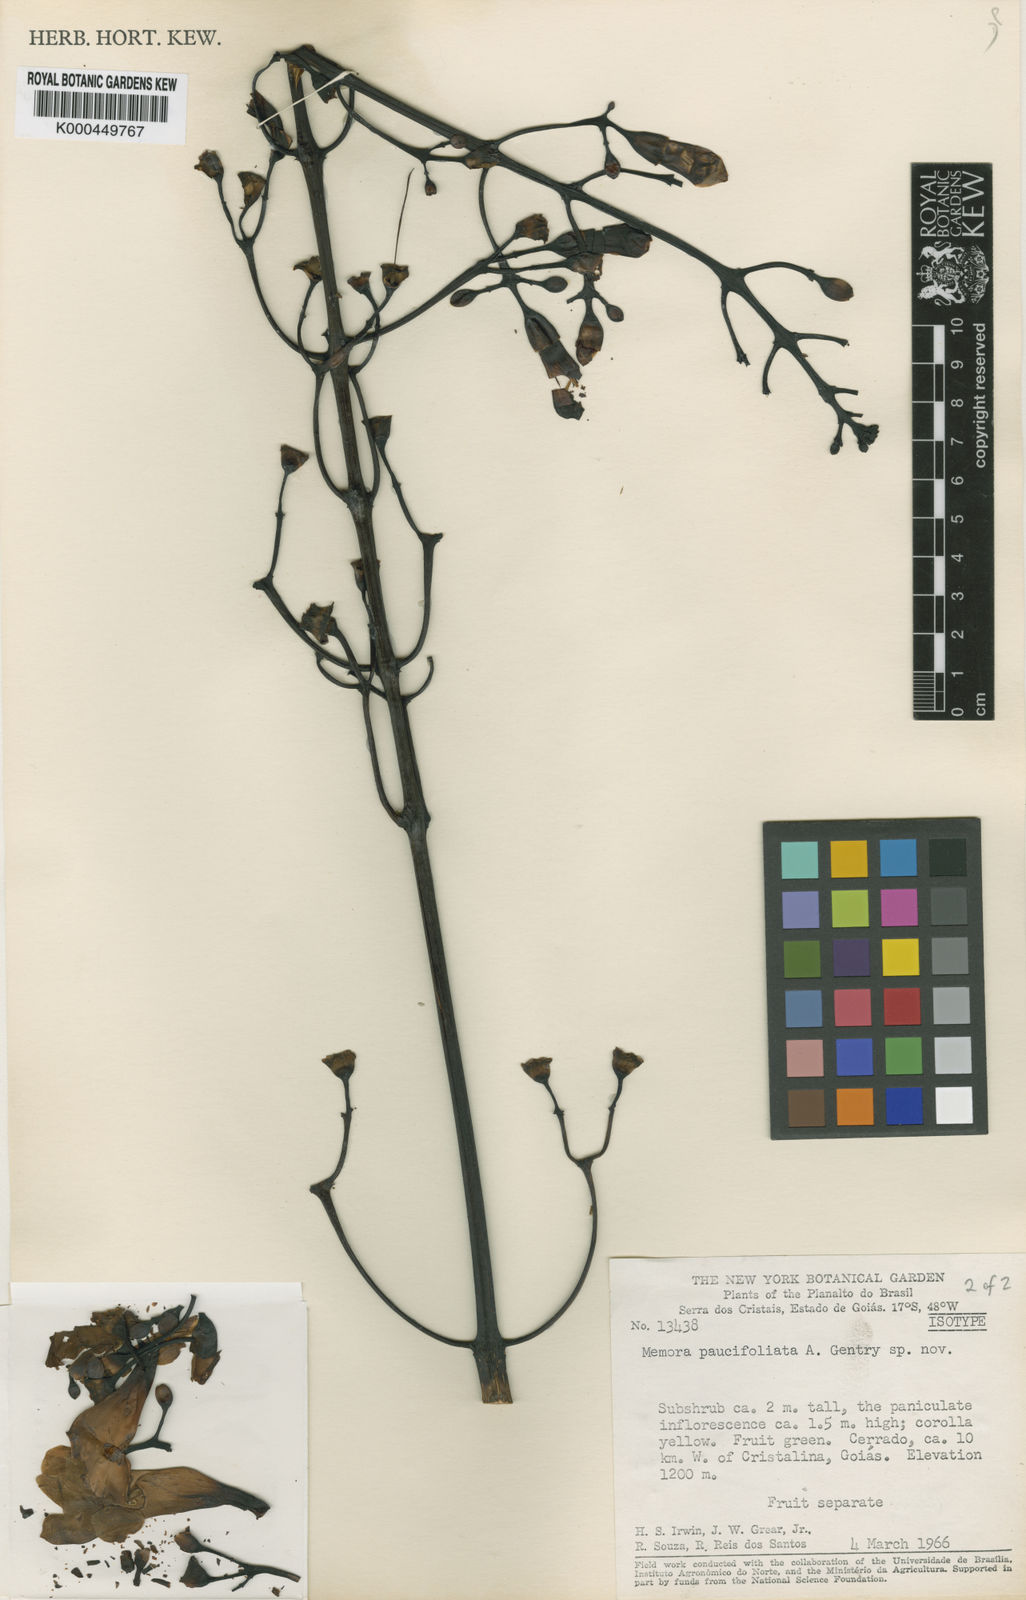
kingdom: Plantae
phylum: Tracheophyta
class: Magnoliopsida
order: Lamiales
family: Bignoniaceae
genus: Adenocalymma
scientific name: Adenocalymma paucifoliolatum
